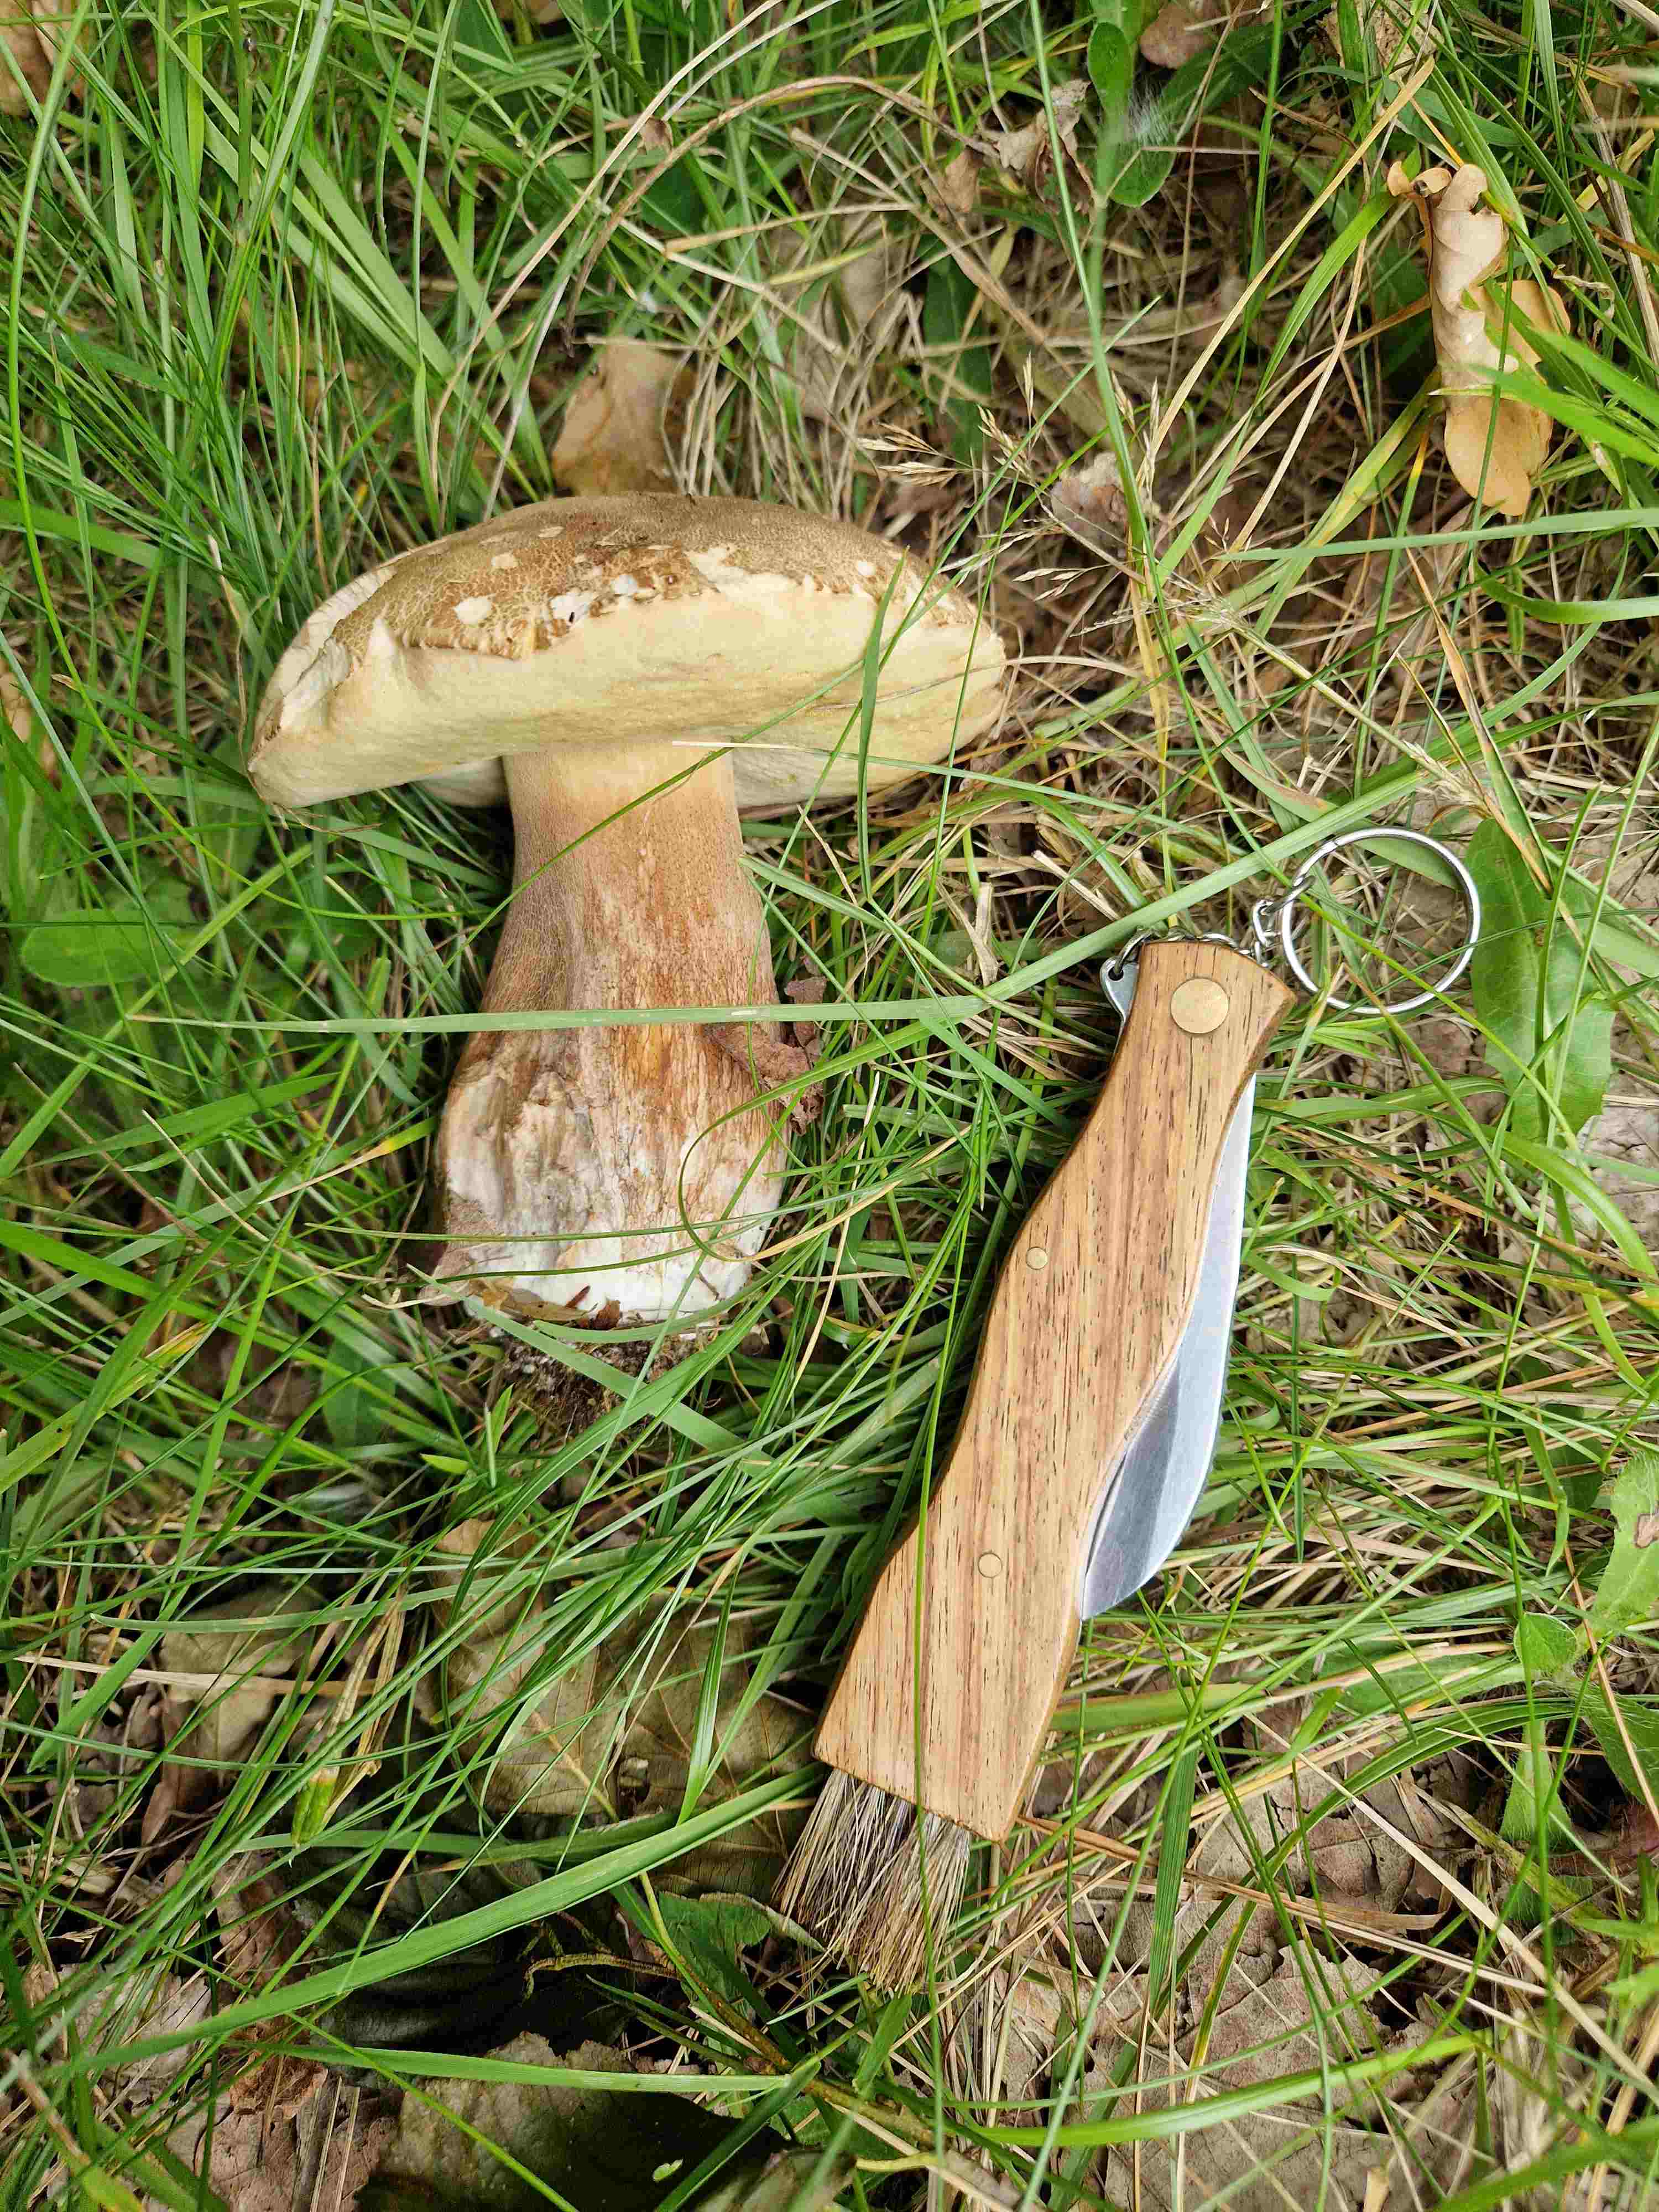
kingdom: Fungi
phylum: Basidiomycota
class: Agaricomycetes
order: Boletales
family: Boletaceae
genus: Boletus
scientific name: Boletus reticulatus
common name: sommer-rørhat
